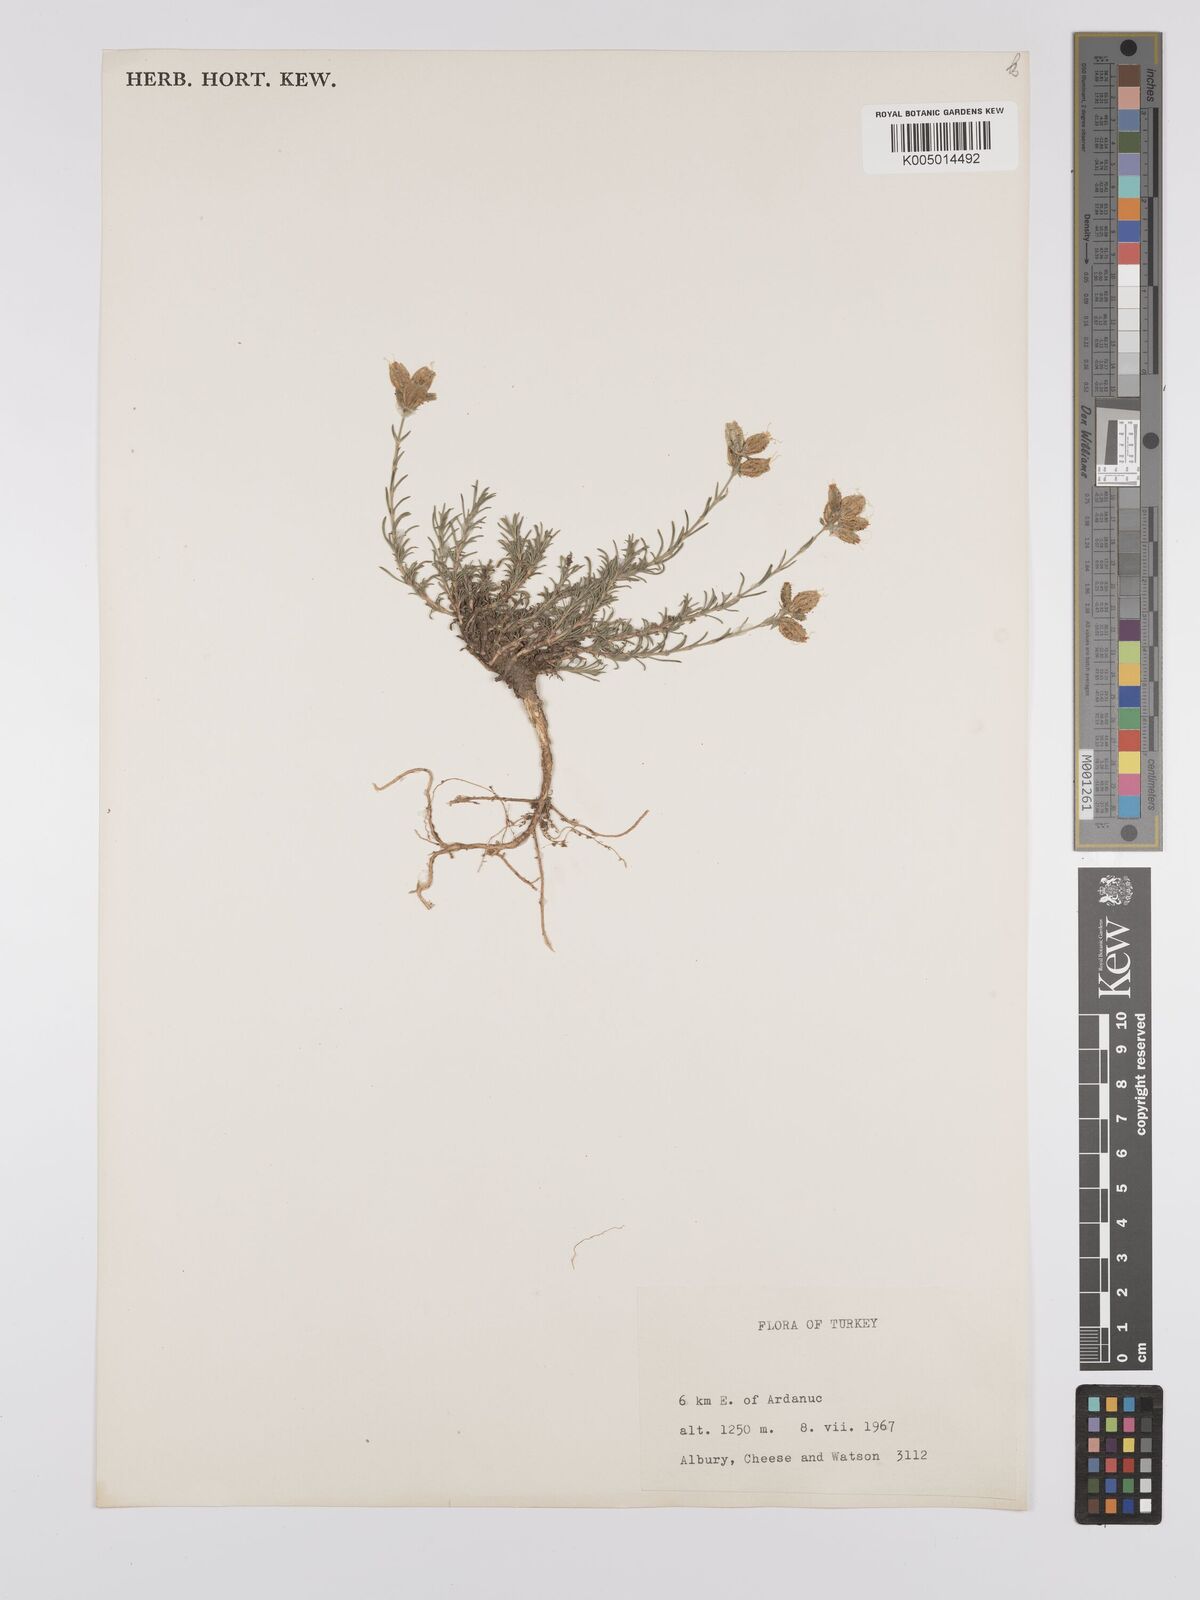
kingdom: Plantae
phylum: Tracheophyta
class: Magnoliopsida
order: Caryophyllales
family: Caryophyllaceae
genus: Silene
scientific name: Silene
